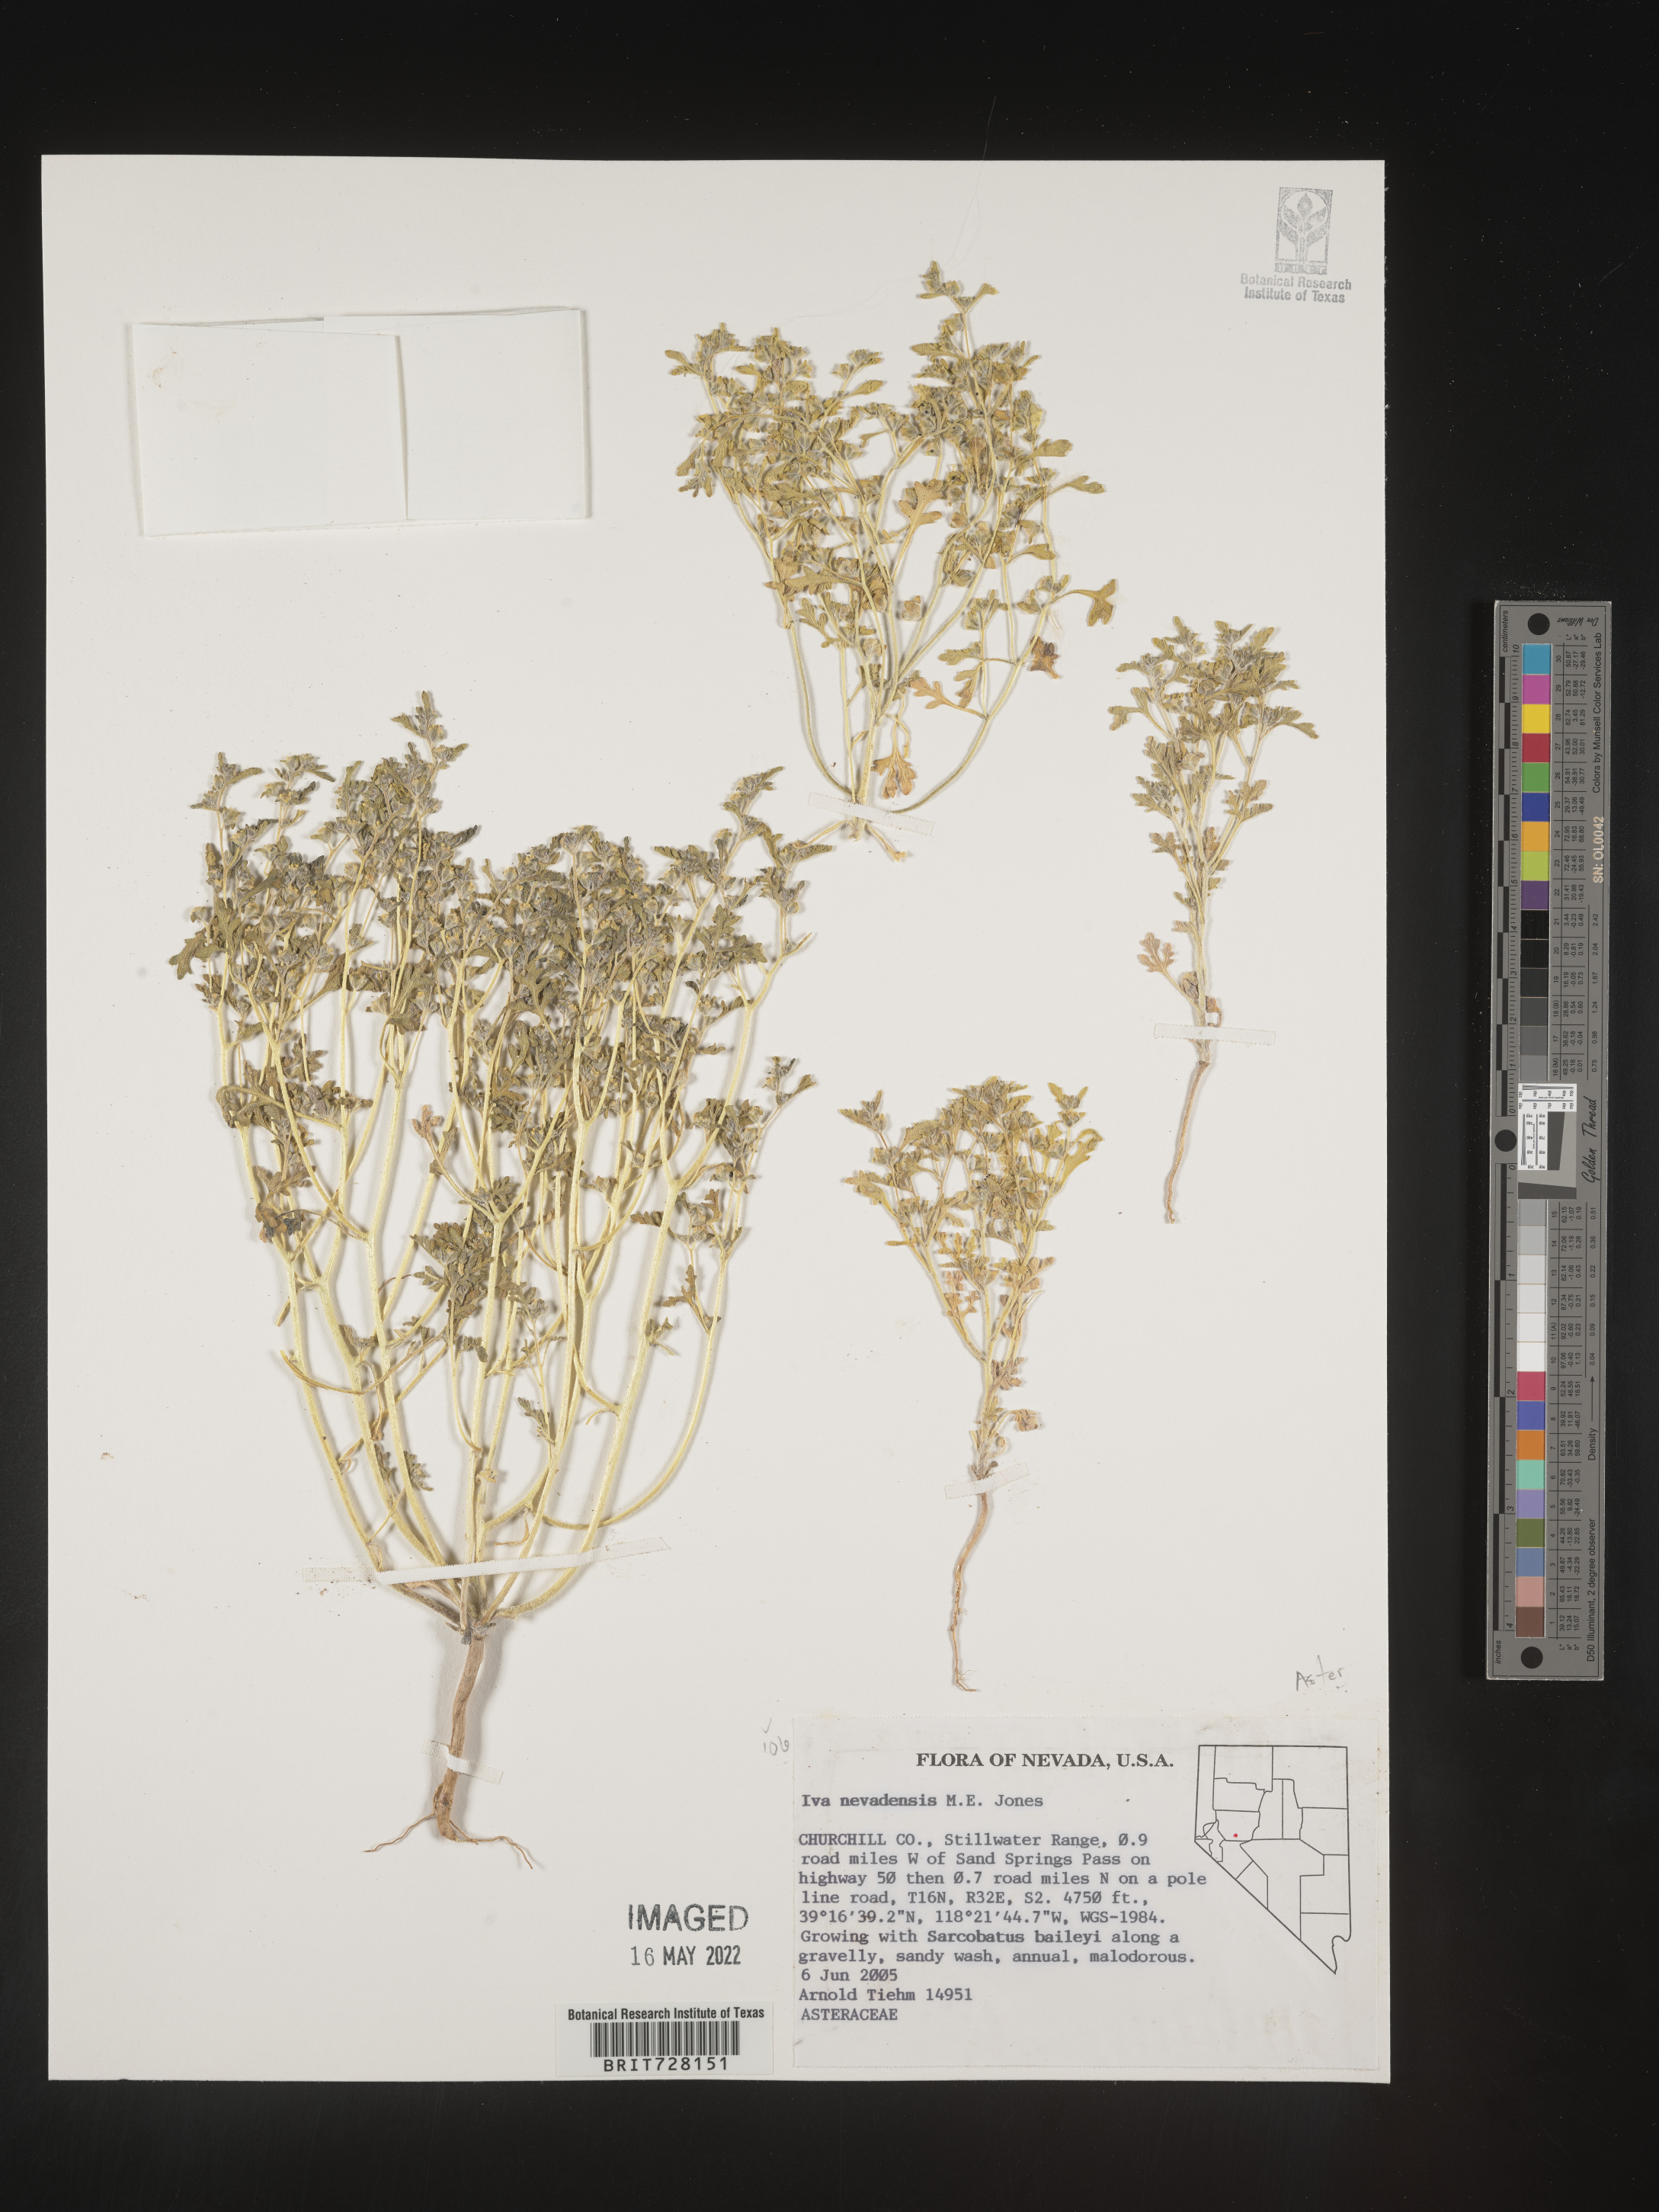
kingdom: Plantae
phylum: Tracheophyta
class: Magnoliopsida
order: Asterales
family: Asteraceae
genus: Euphrosyne
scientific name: Euphrosyne nevadensis
